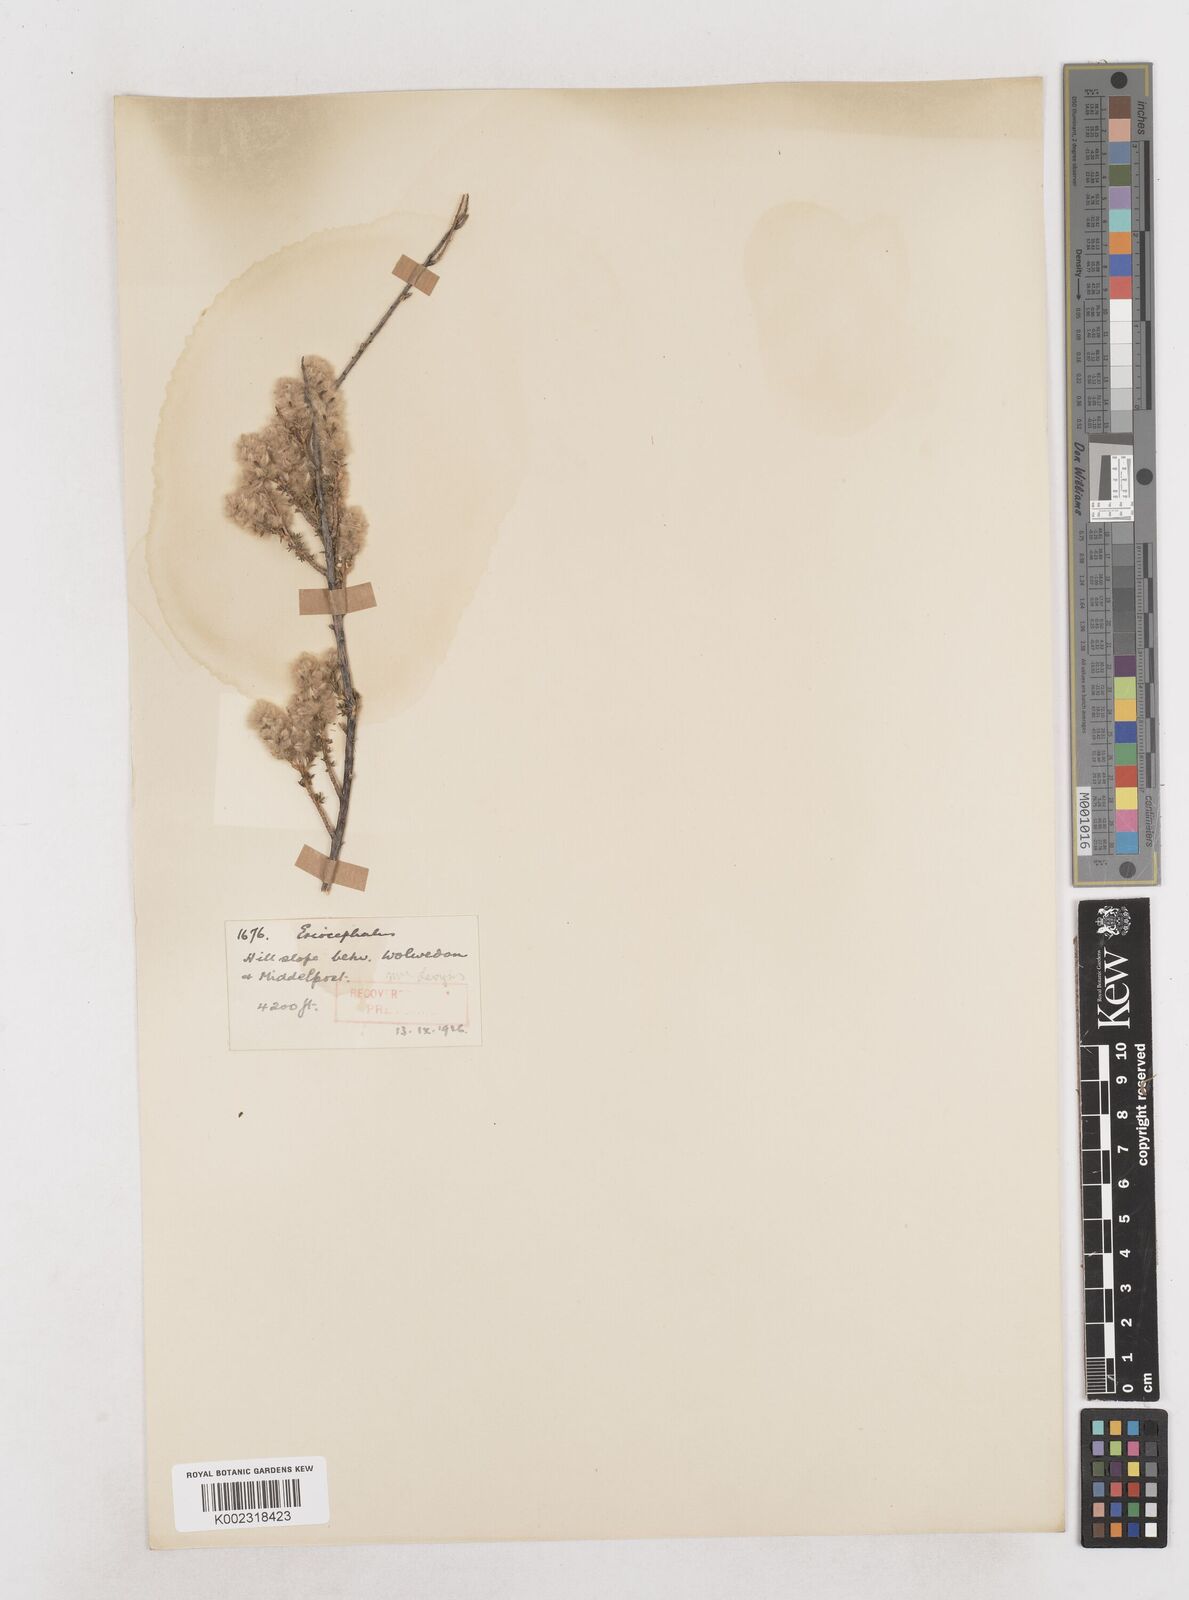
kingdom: Plantae
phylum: Tracheophyta
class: Magnoliopsida
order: Asterales
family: Asteraceae
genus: Eriocephalus
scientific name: Eriocephalus
